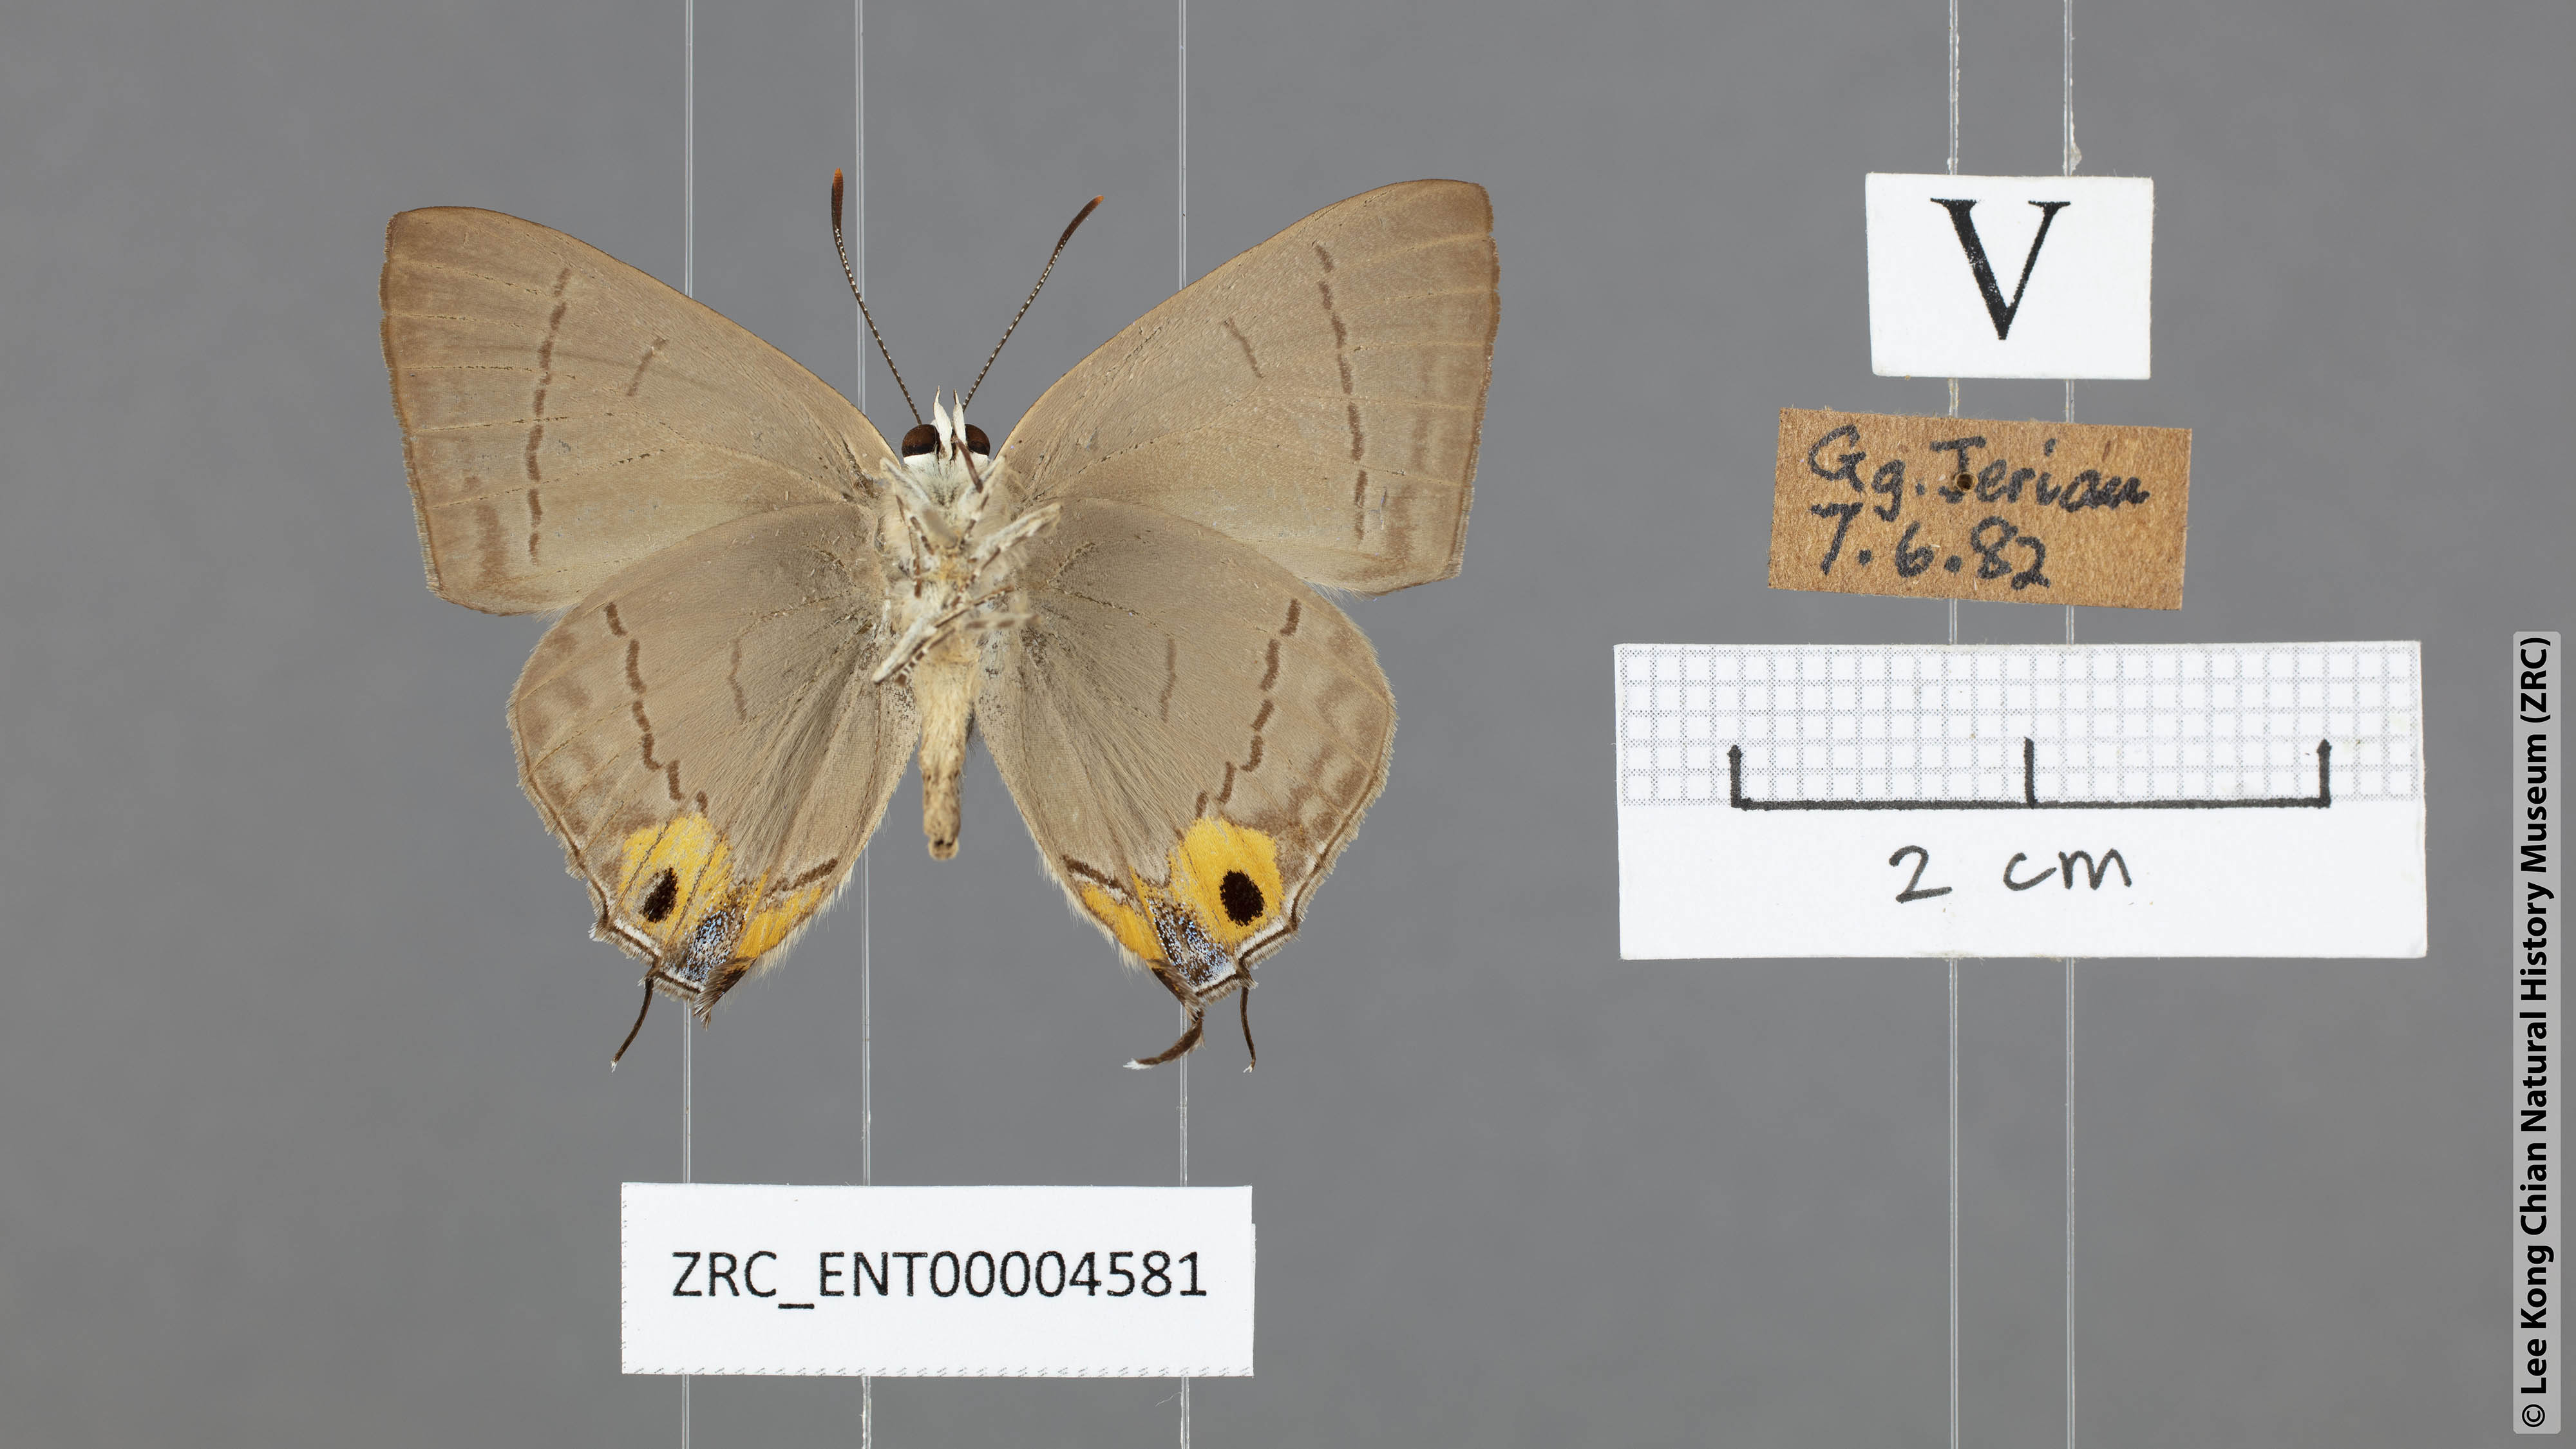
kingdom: Animalia
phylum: Arthropoda
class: Insecta
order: Lepidoptera
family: Lycaenidae
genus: Tajuria
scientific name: Tajuria albiplaga
